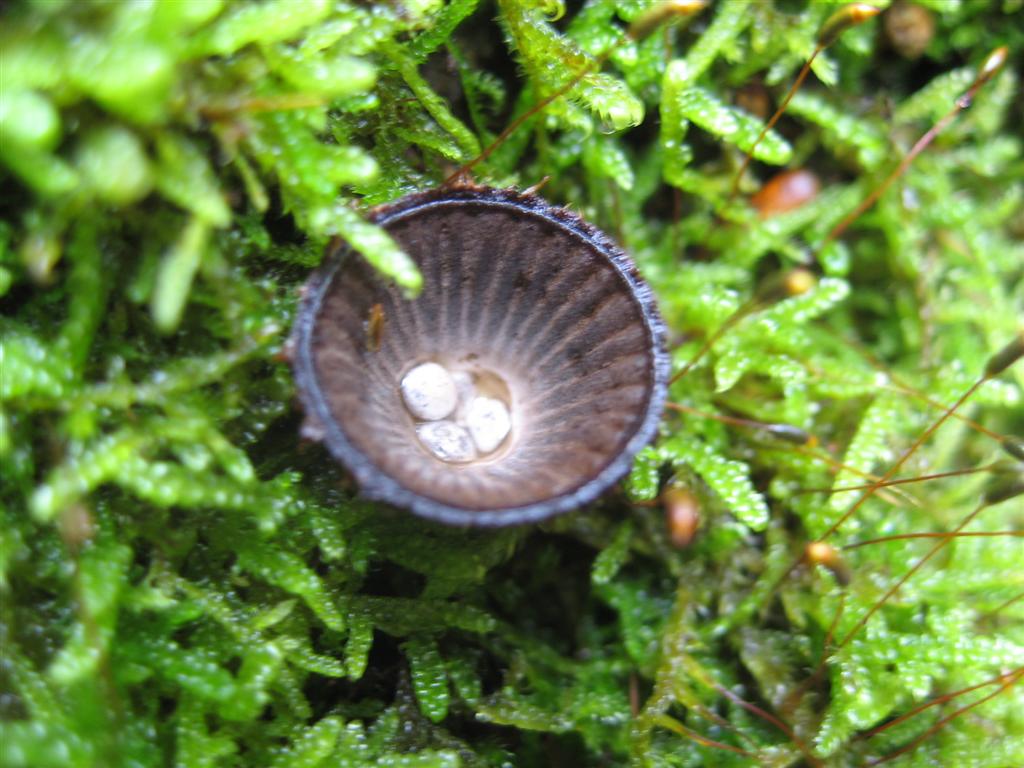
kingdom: Fungi
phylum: Basidiomycota
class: Agaricomycetes
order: Agaricales
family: Agaricaceae
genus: Cyathus
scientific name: Cyathus striatus
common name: stribet redesvamp
